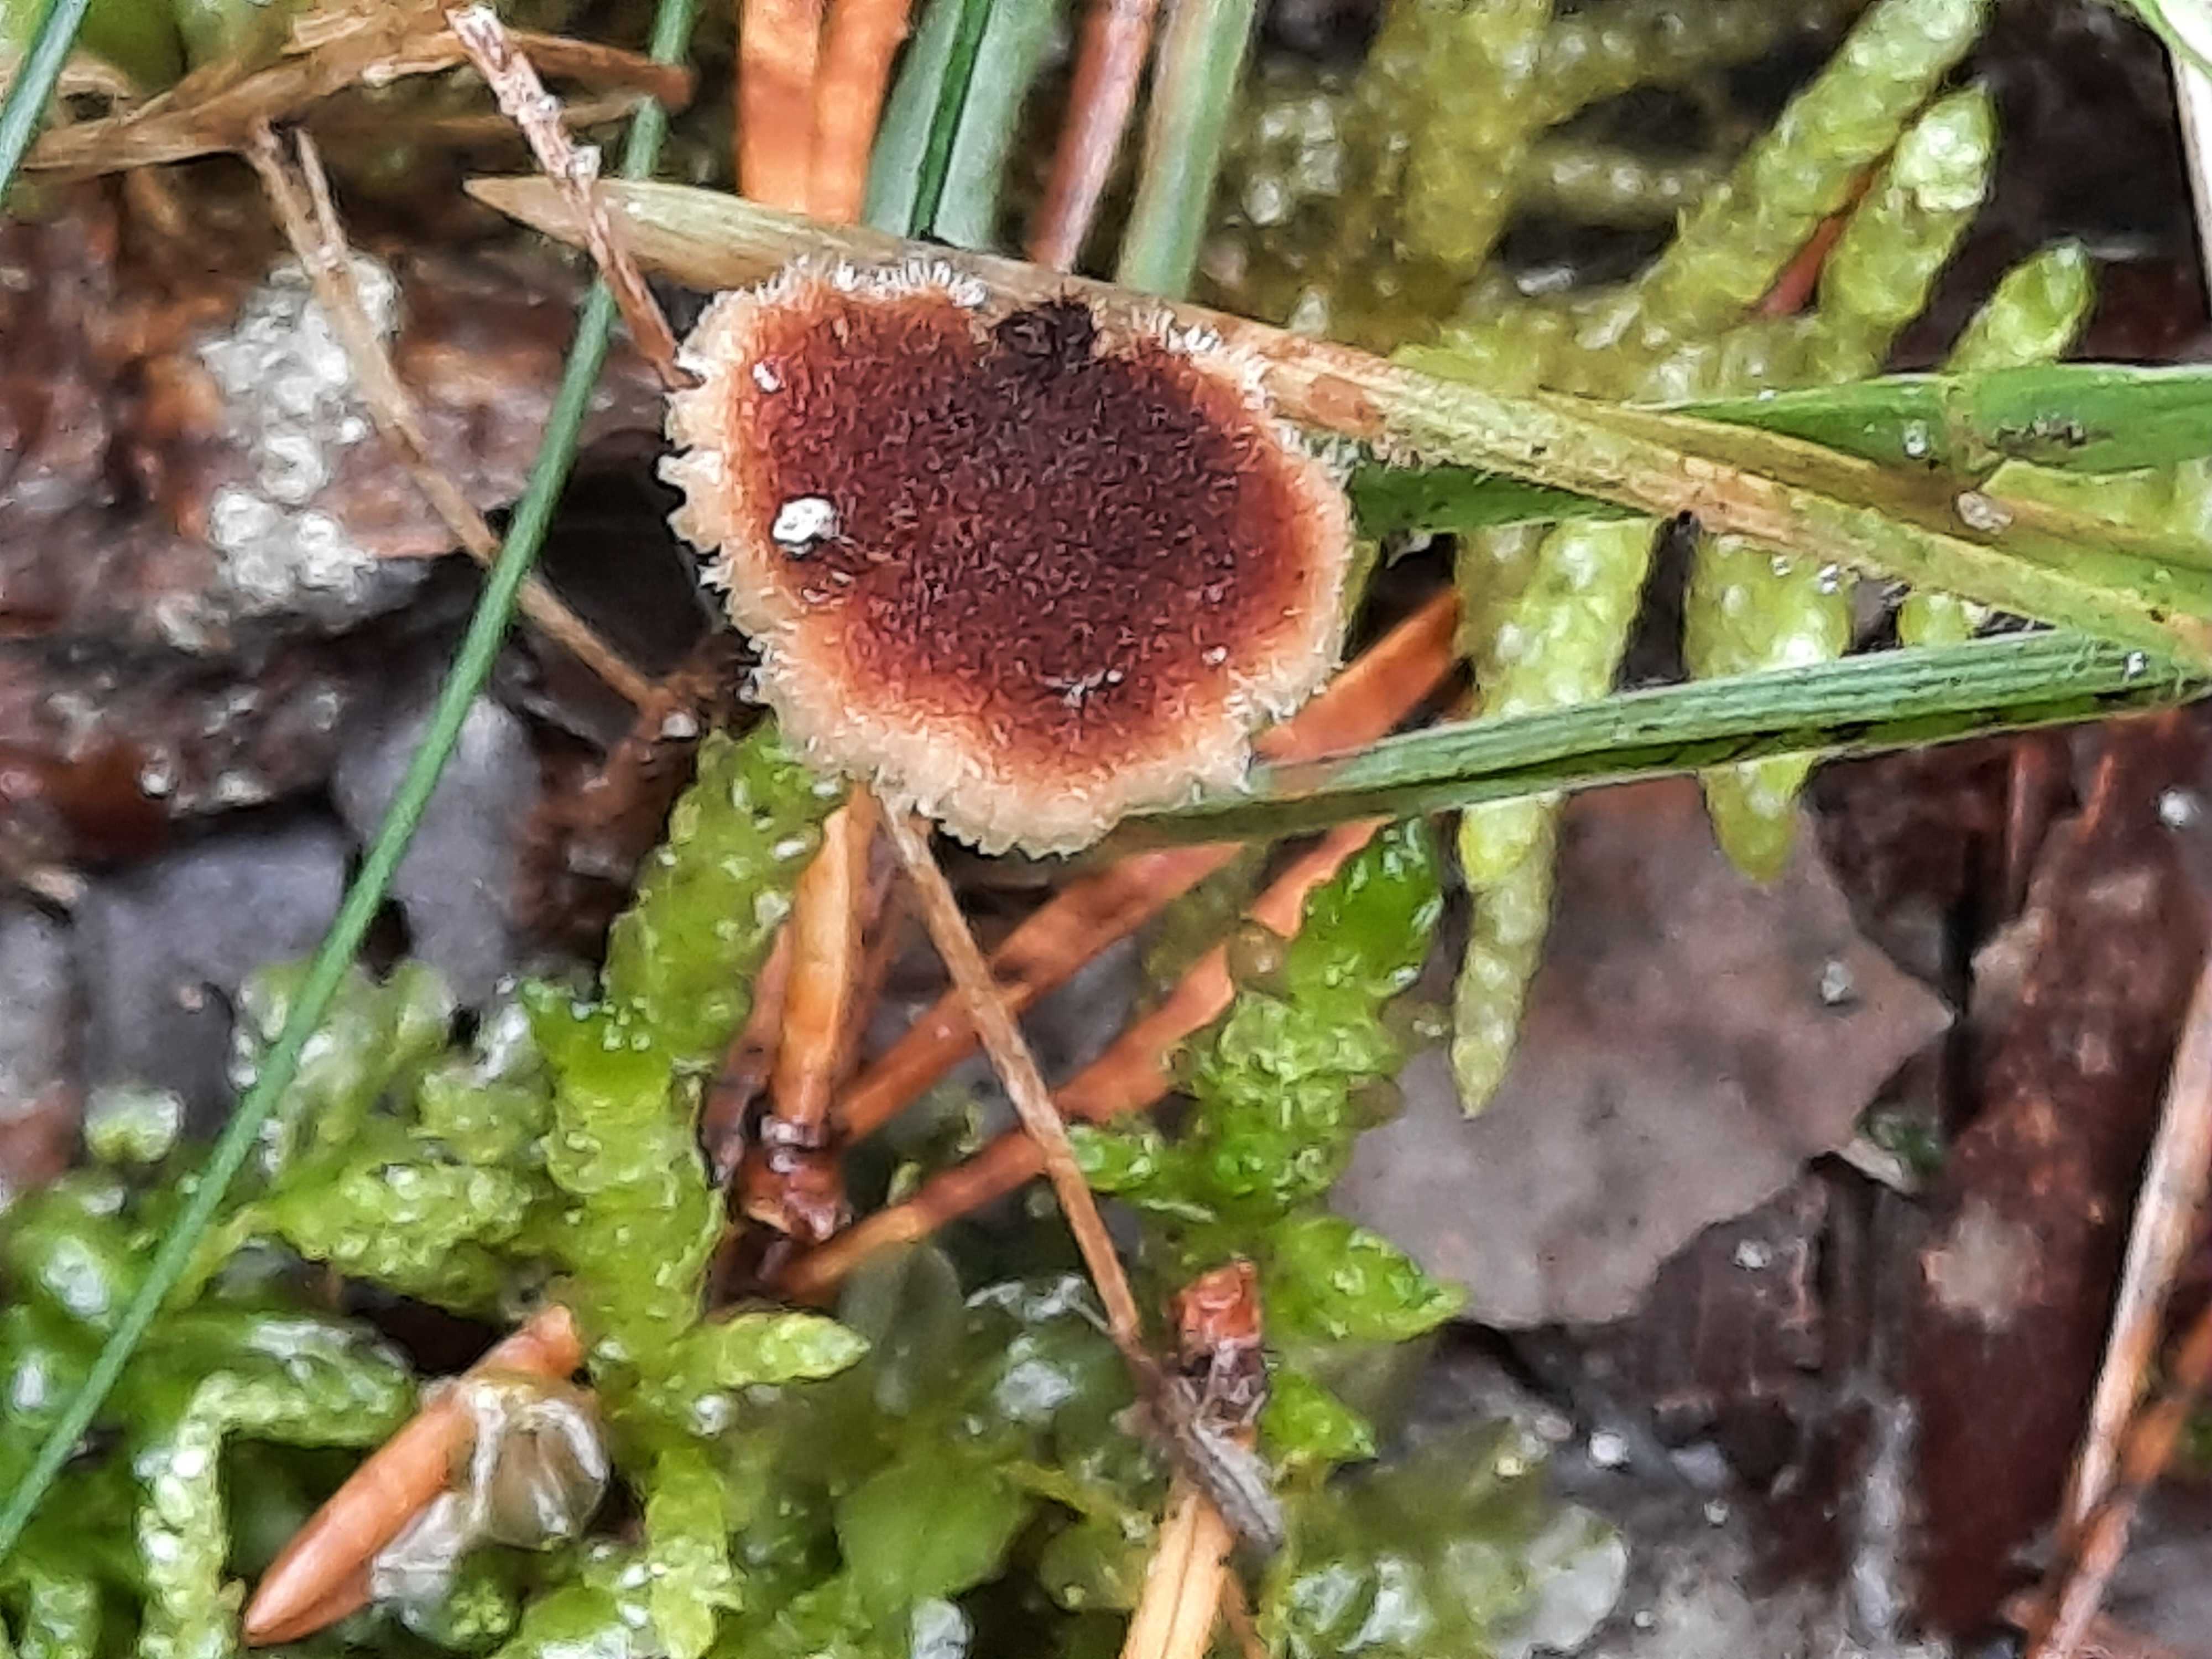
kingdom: Fungi
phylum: Basidiomycota
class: Agaricomycetes
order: Russulales
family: Auriscalpiaceae
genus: Auriscalpium
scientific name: Auriscalpium vulgare
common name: koglepigsvamp
